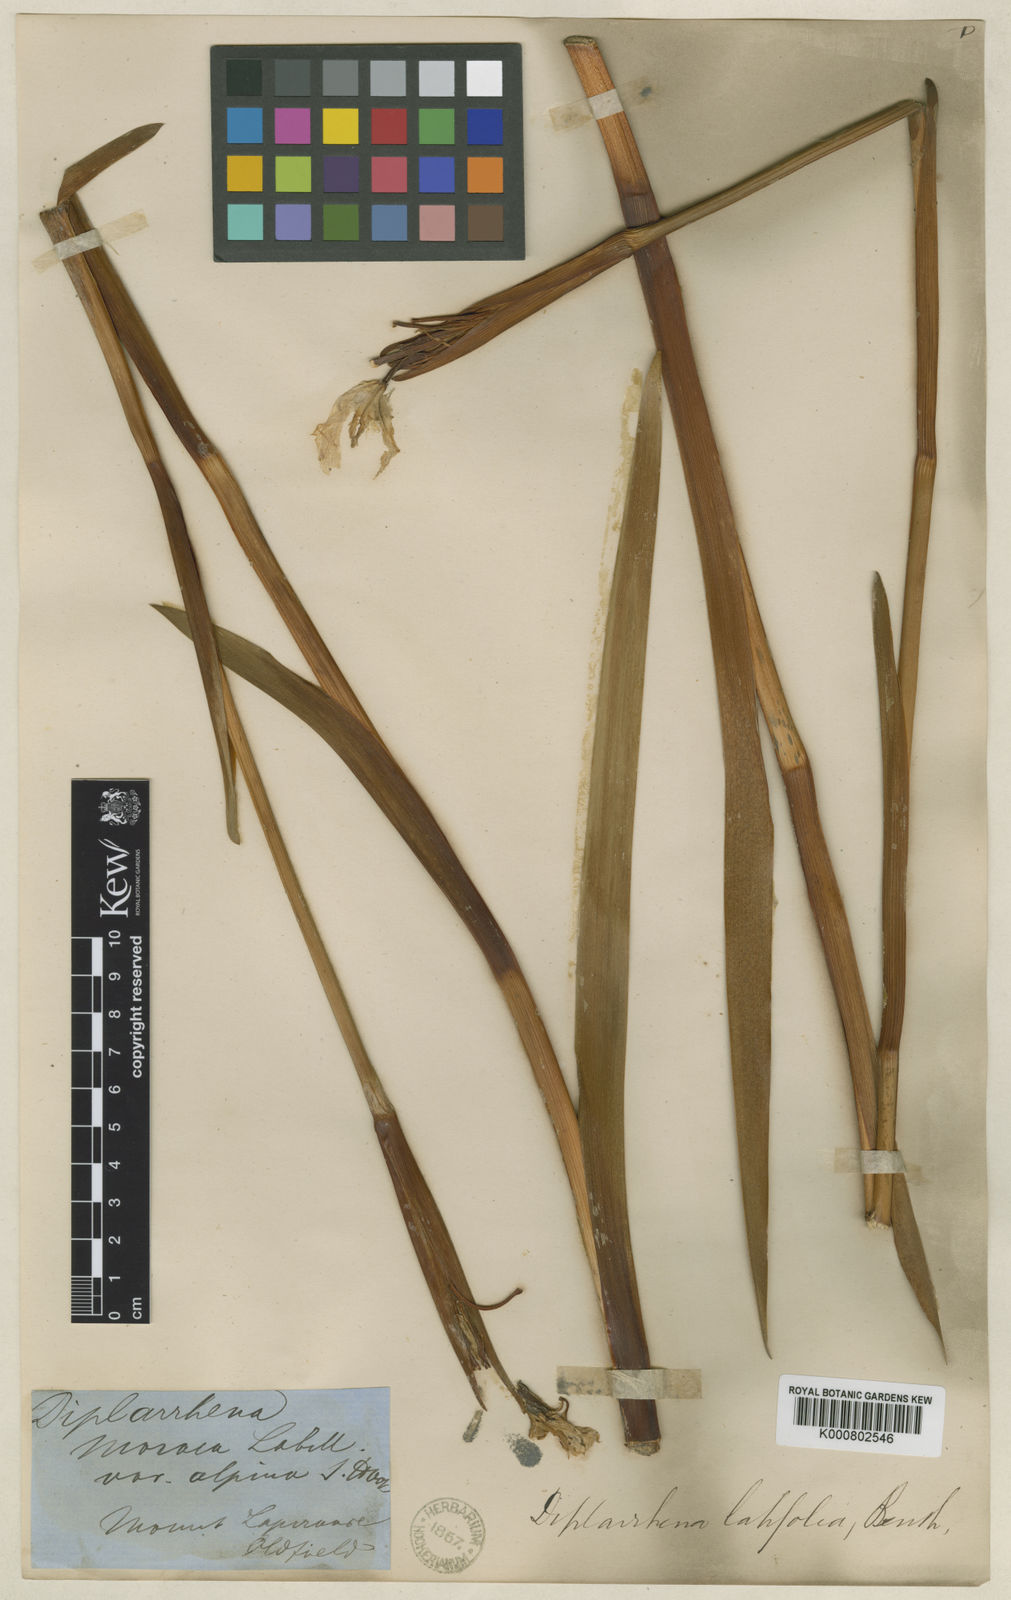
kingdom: Plantae
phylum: Tracheophyta
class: Liliopsida
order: Asparagales
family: Iridaceae
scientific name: Iridaceae
